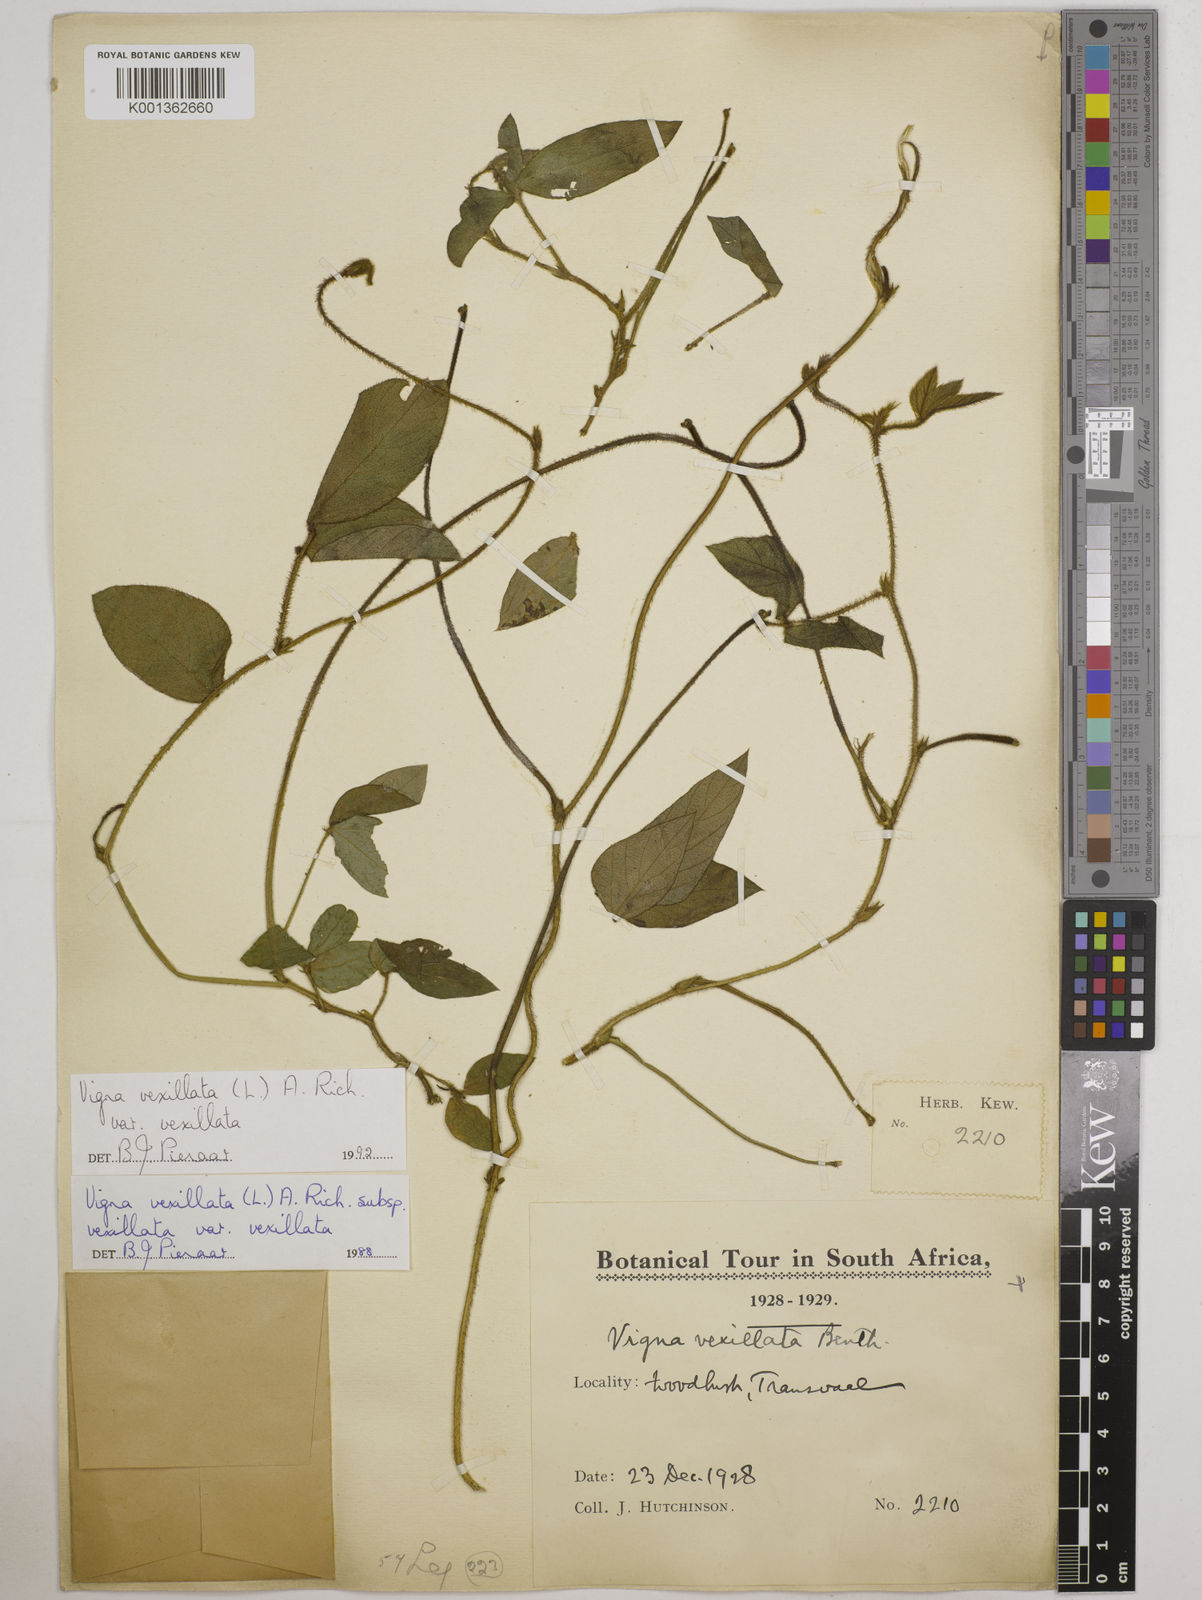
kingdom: Plantae
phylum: Tracheophyta
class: Magnoliopsida
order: Fabales
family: Fabaceae
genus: Vigna
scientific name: Vigna
